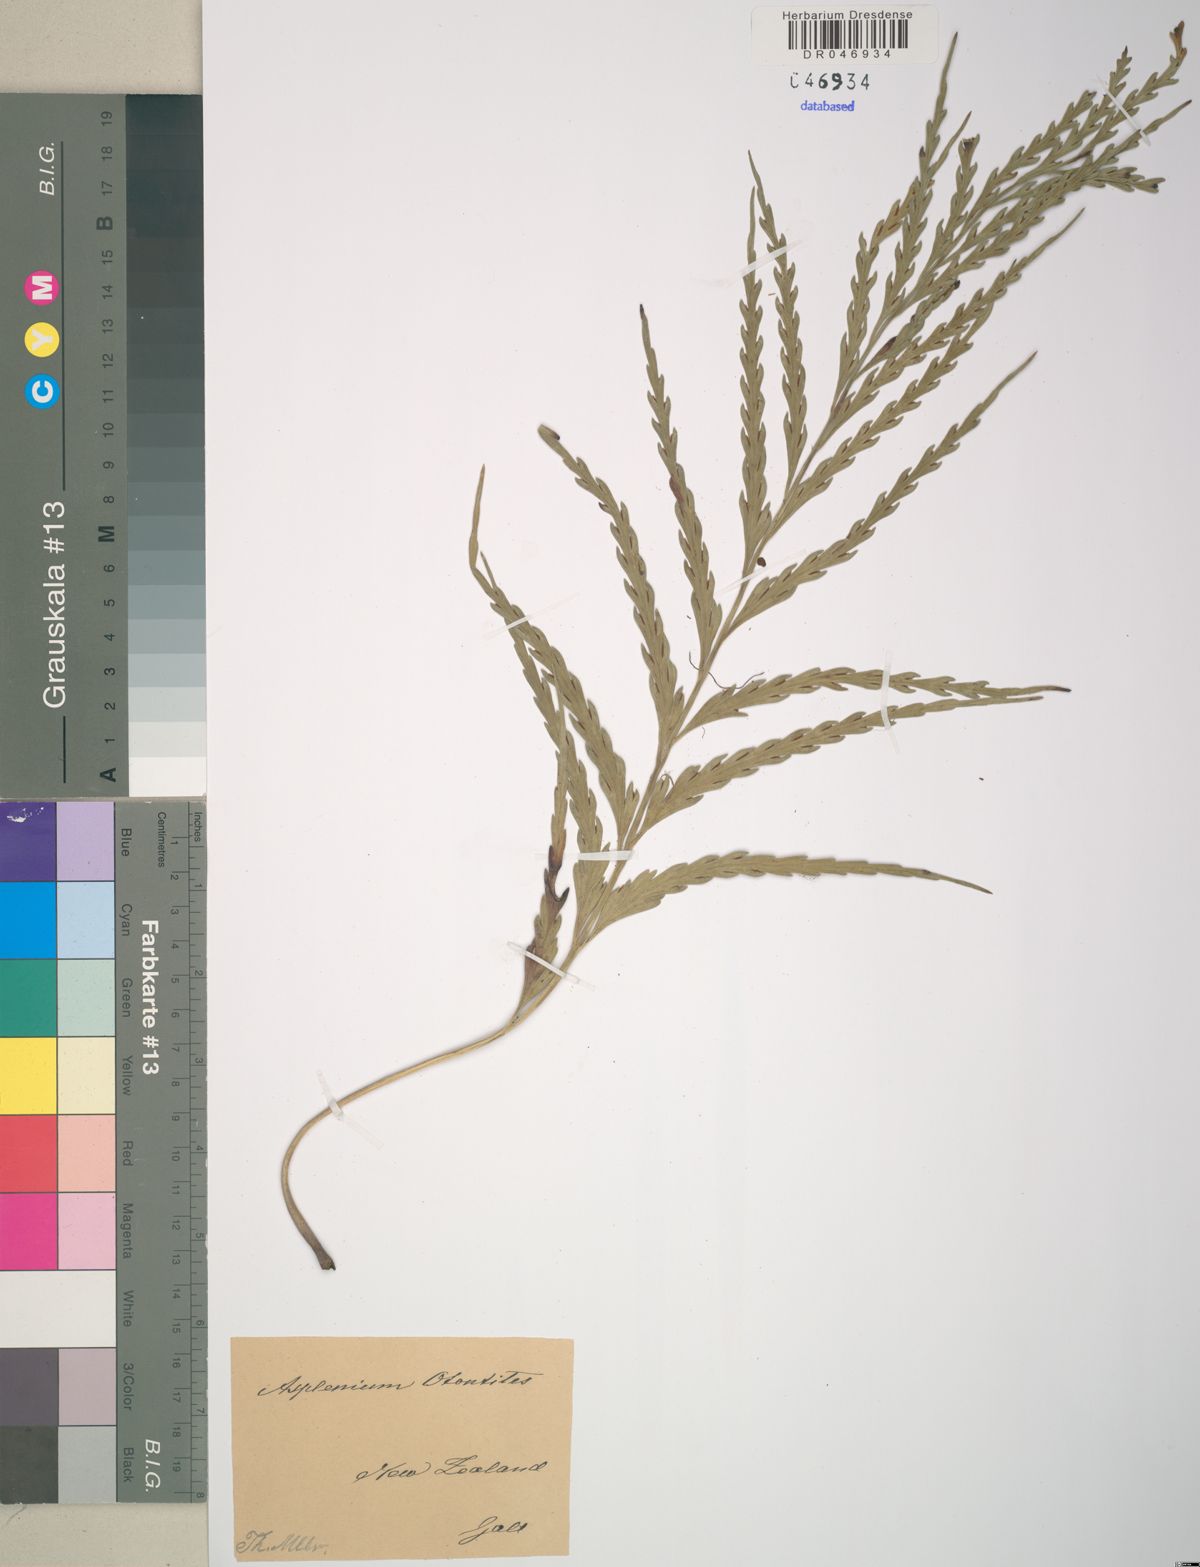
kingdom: Plantae
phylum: Tracheophyta
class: Polypodiopsida
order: Polypodiales
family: Aspleniaceae
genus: Asplenium
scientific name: Asplenium flaccidum
